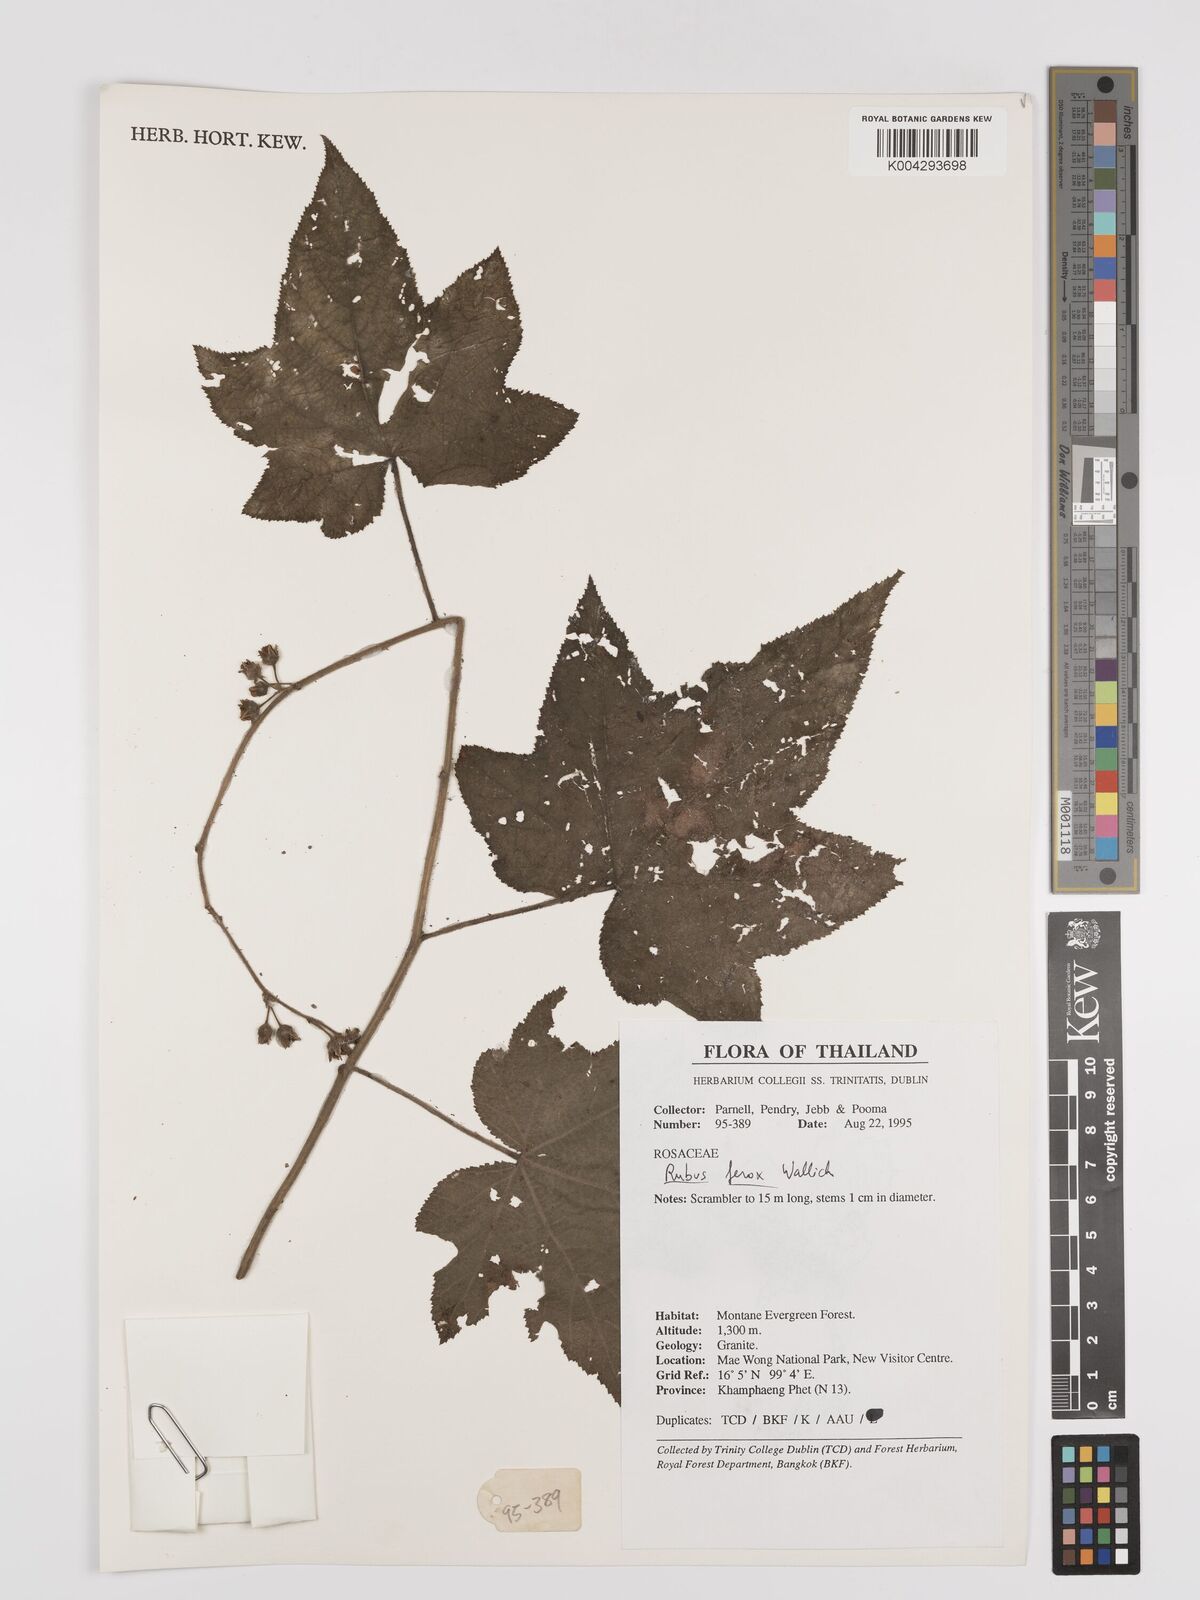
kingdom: Plantae
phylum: Tracheophyta
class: Magnoliopsida
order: Rosales
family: Rosaceae
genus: Rubus
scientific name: Rubus
